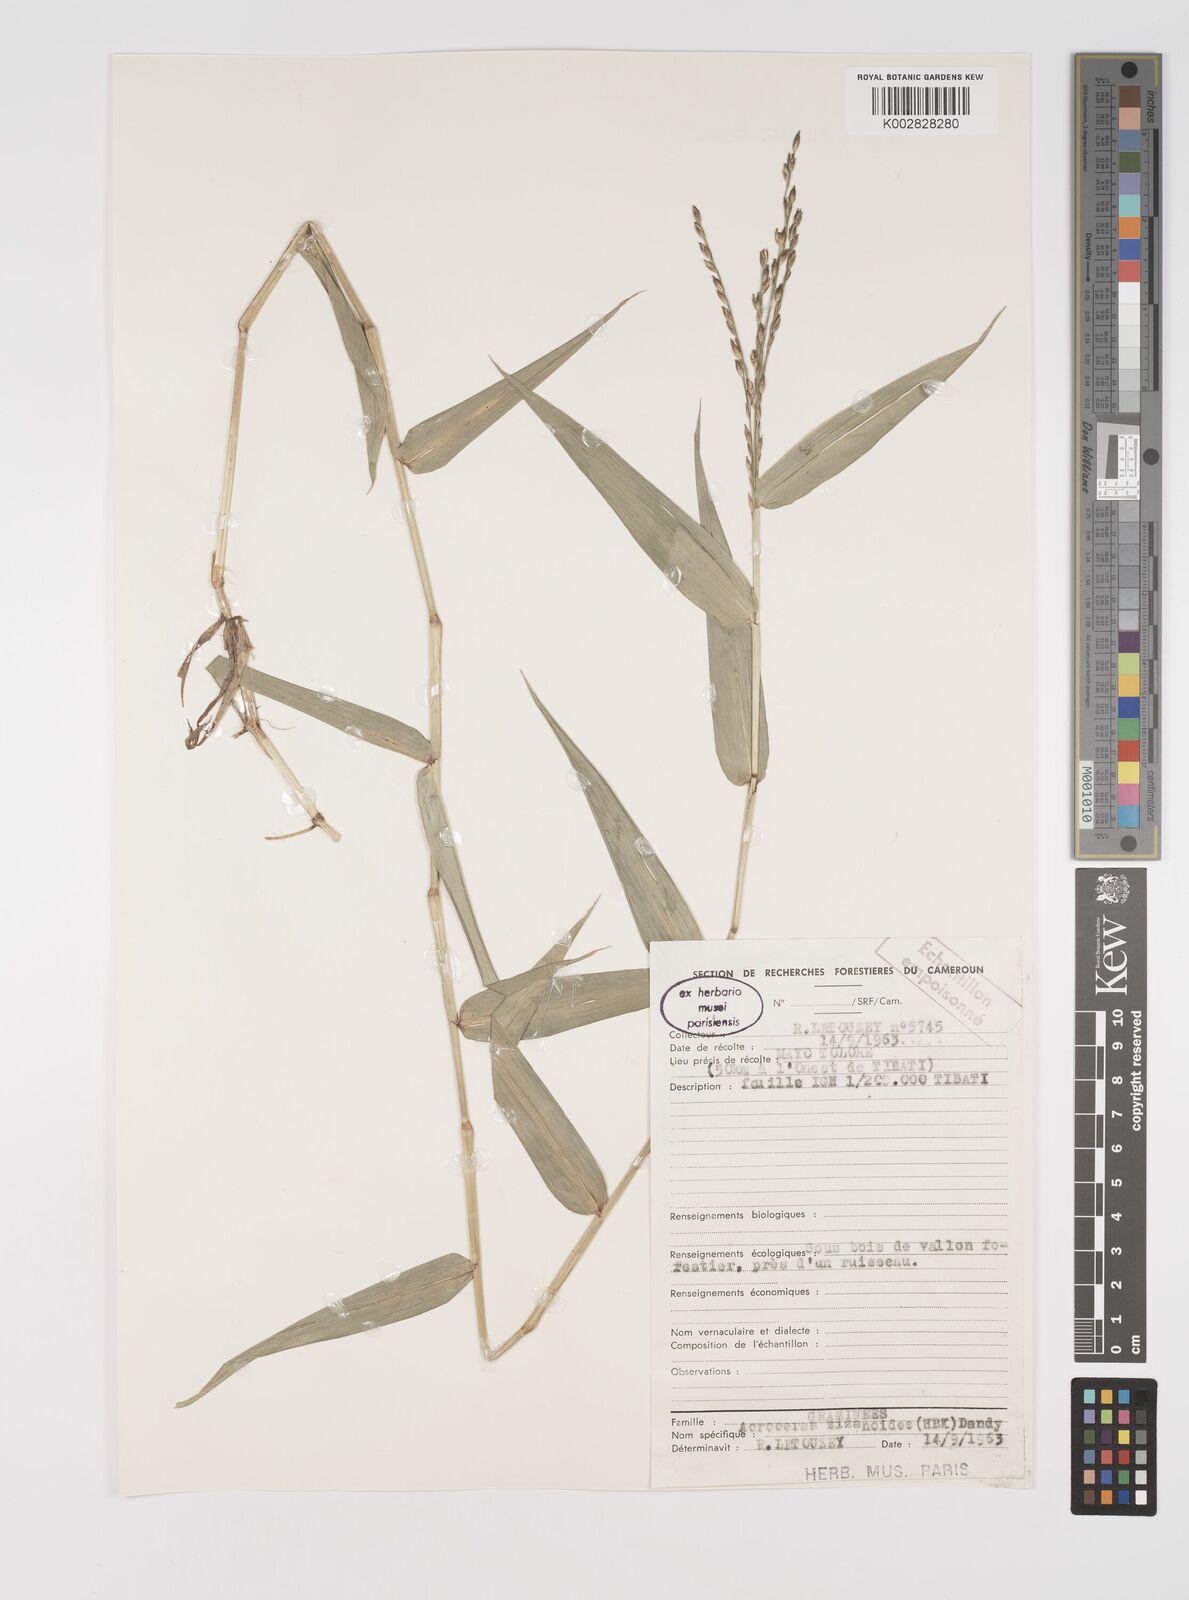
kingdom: Plantae
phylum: Tracheophyta
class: Liliopsida
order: Poales
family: Poaceae
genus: Acroceras
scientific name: Acroceras zizanioides
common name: Oat grass
